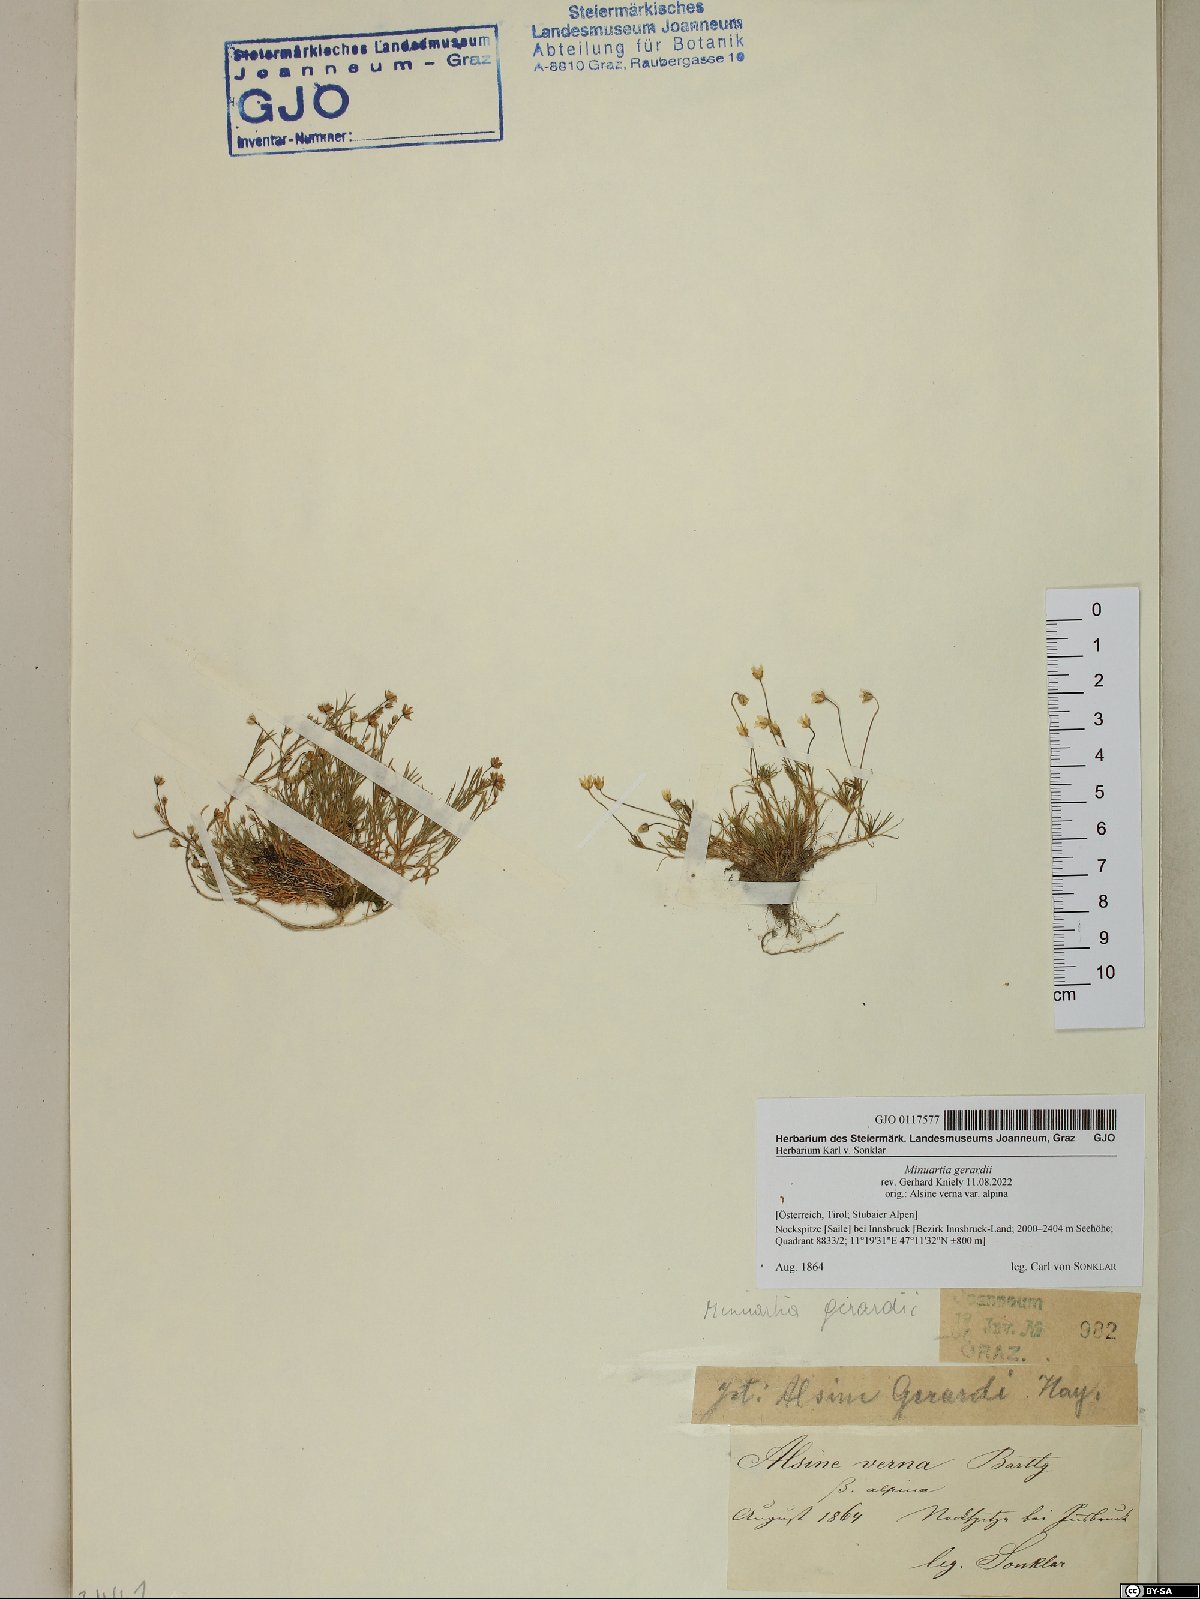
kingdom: Plantae
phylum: Tracheophyta
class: Magnoliopsida
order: Caryophyllales
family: Caryophyllaceae
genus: Sabulina
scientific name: Sabulina verna
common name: Spring sandwort
